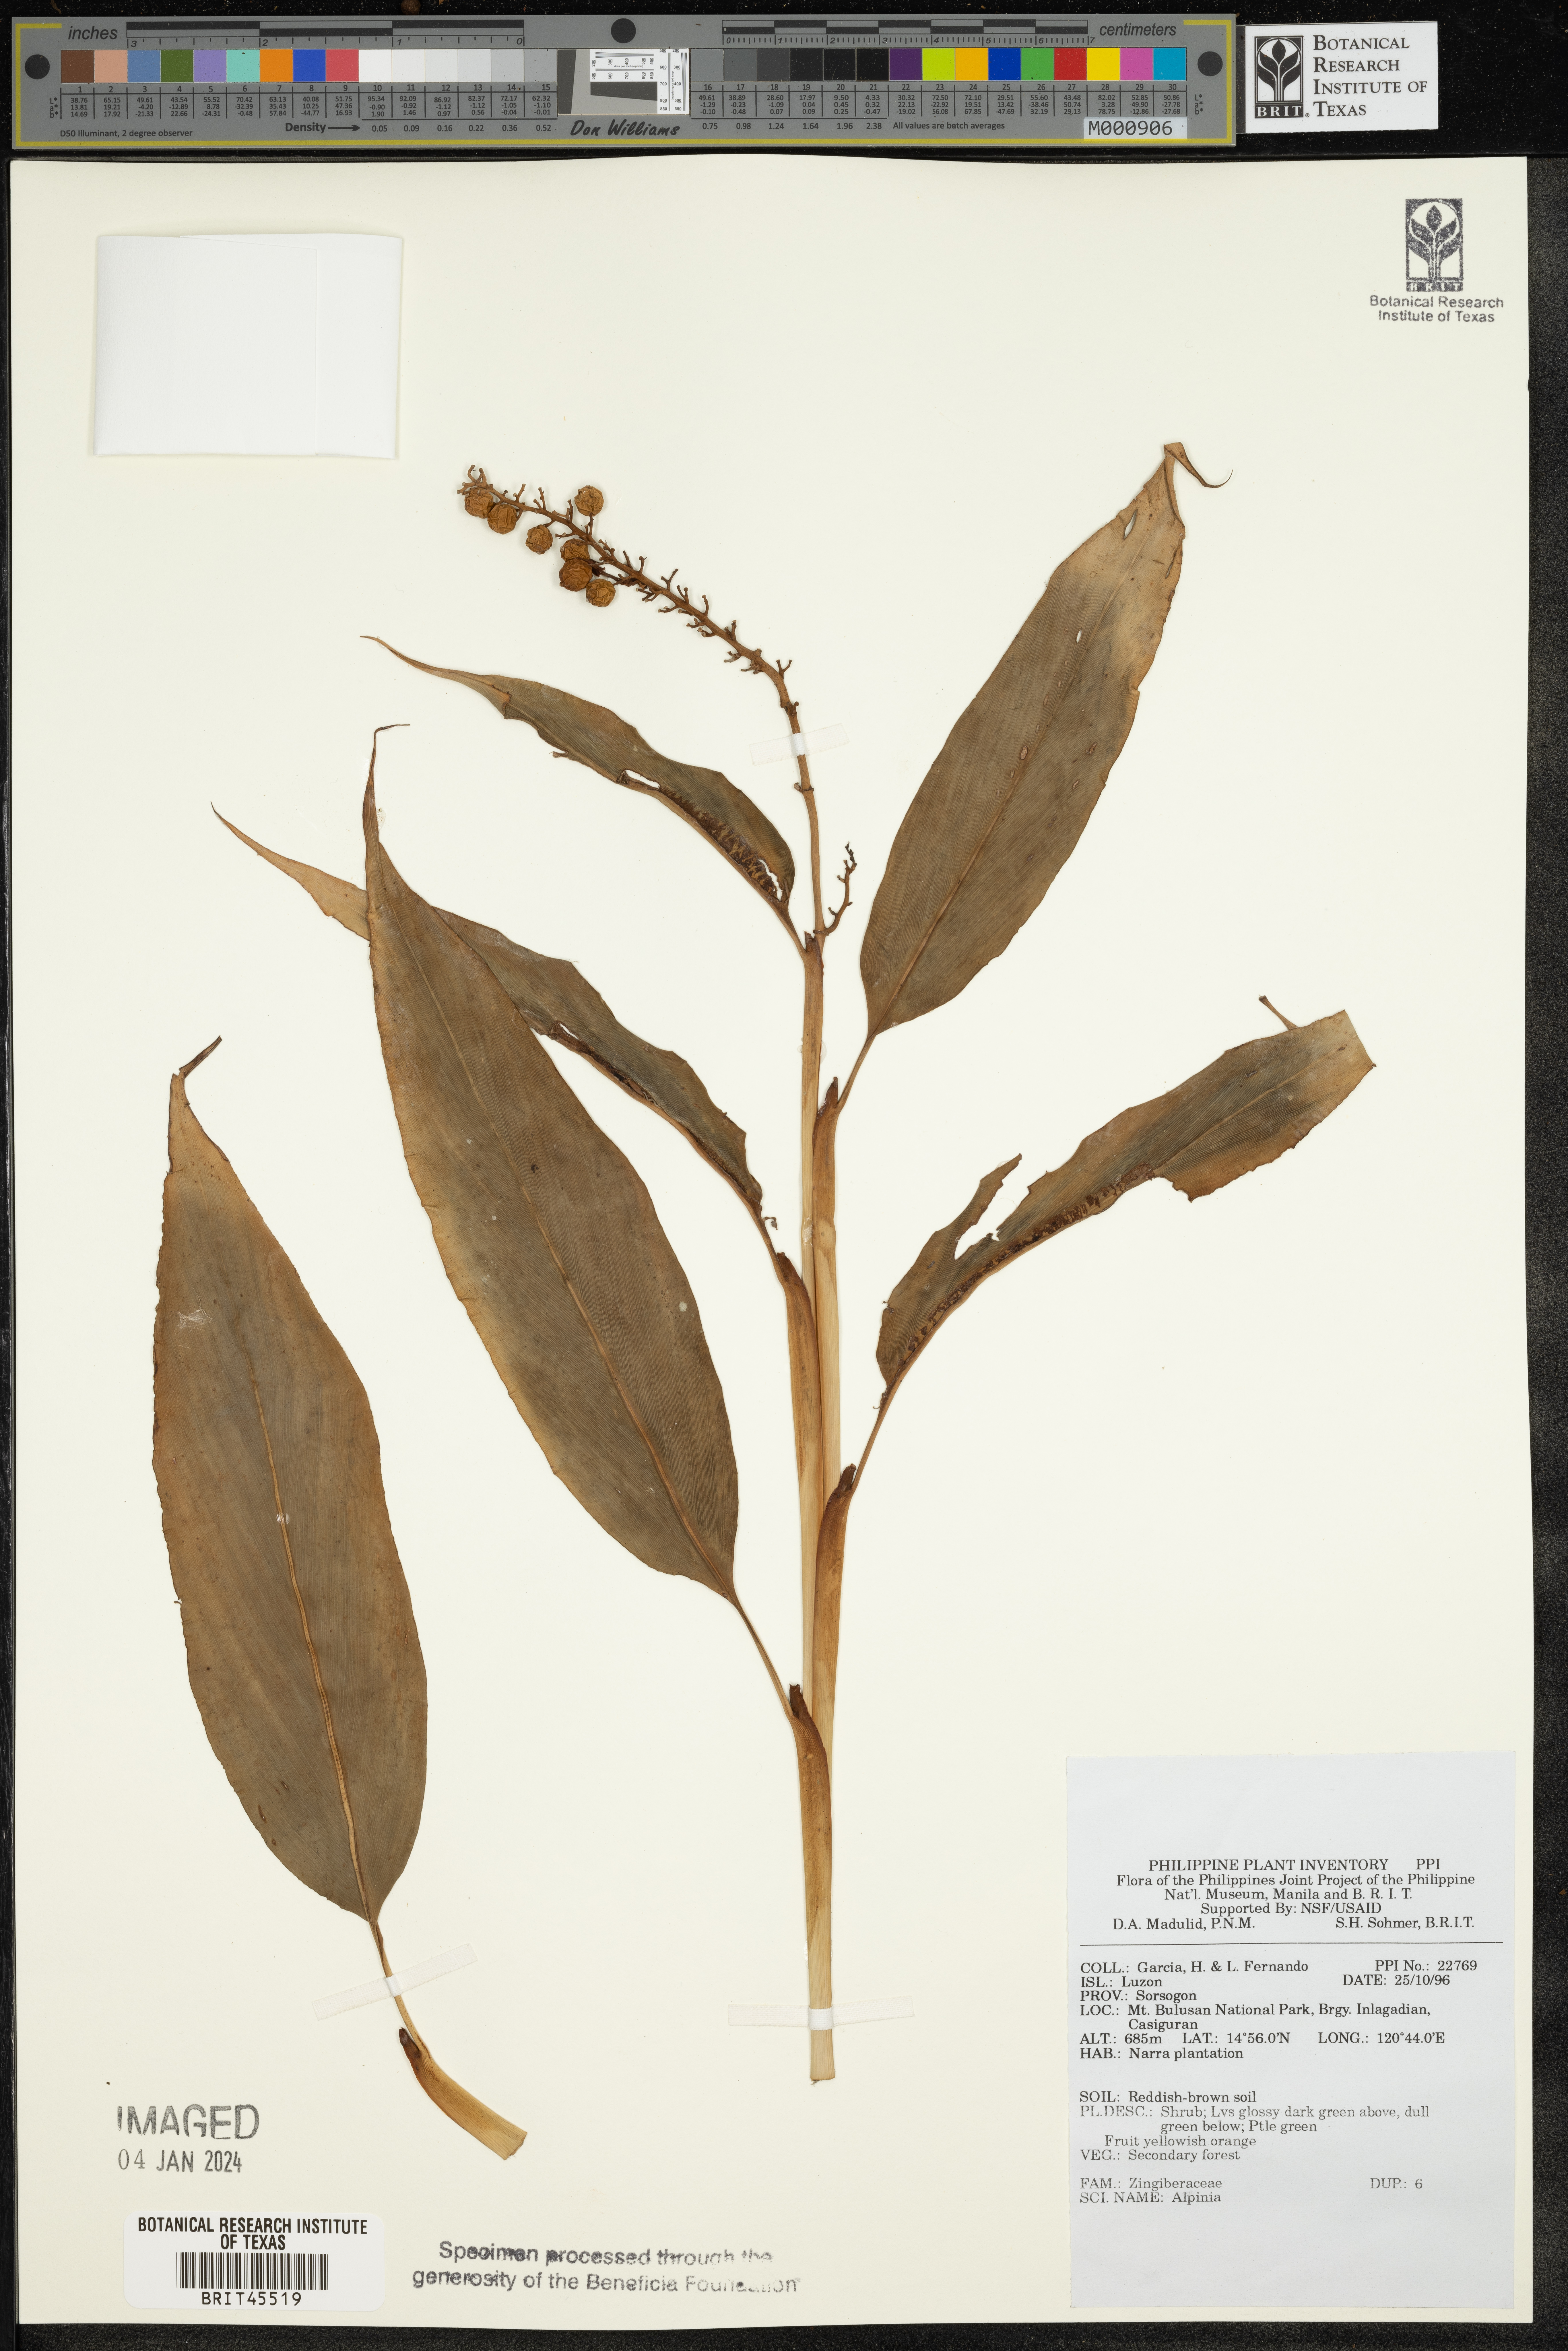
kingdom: Plantae
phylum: Tracheophyta
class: Liliopsida
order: Zingiberales
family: Zingiberaceae
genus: Alpinia
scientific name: Alpinia
